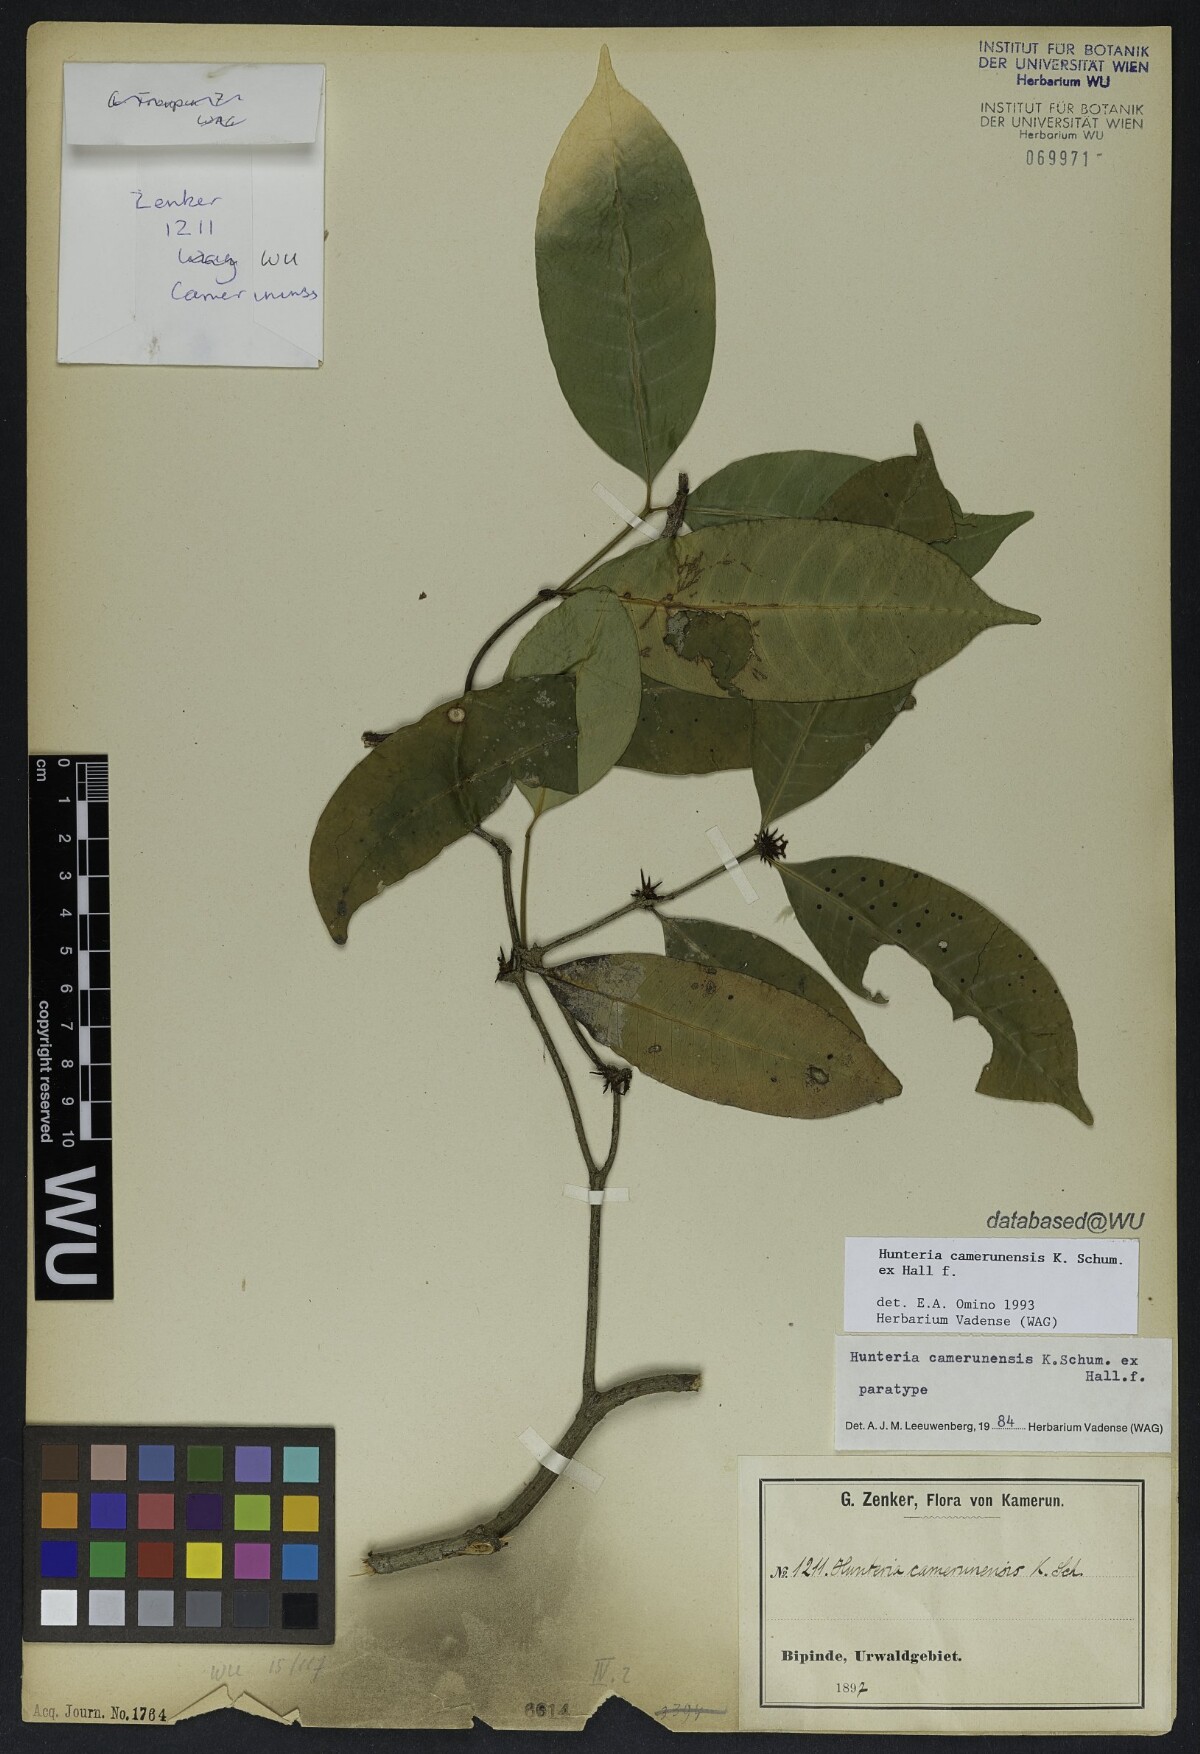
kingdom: Plantae
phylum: Tracheophyta
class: Magnoliopsida
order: Gentianales
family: Apocynaceae
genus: Hunteria
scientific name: Hunteria camerunensis
